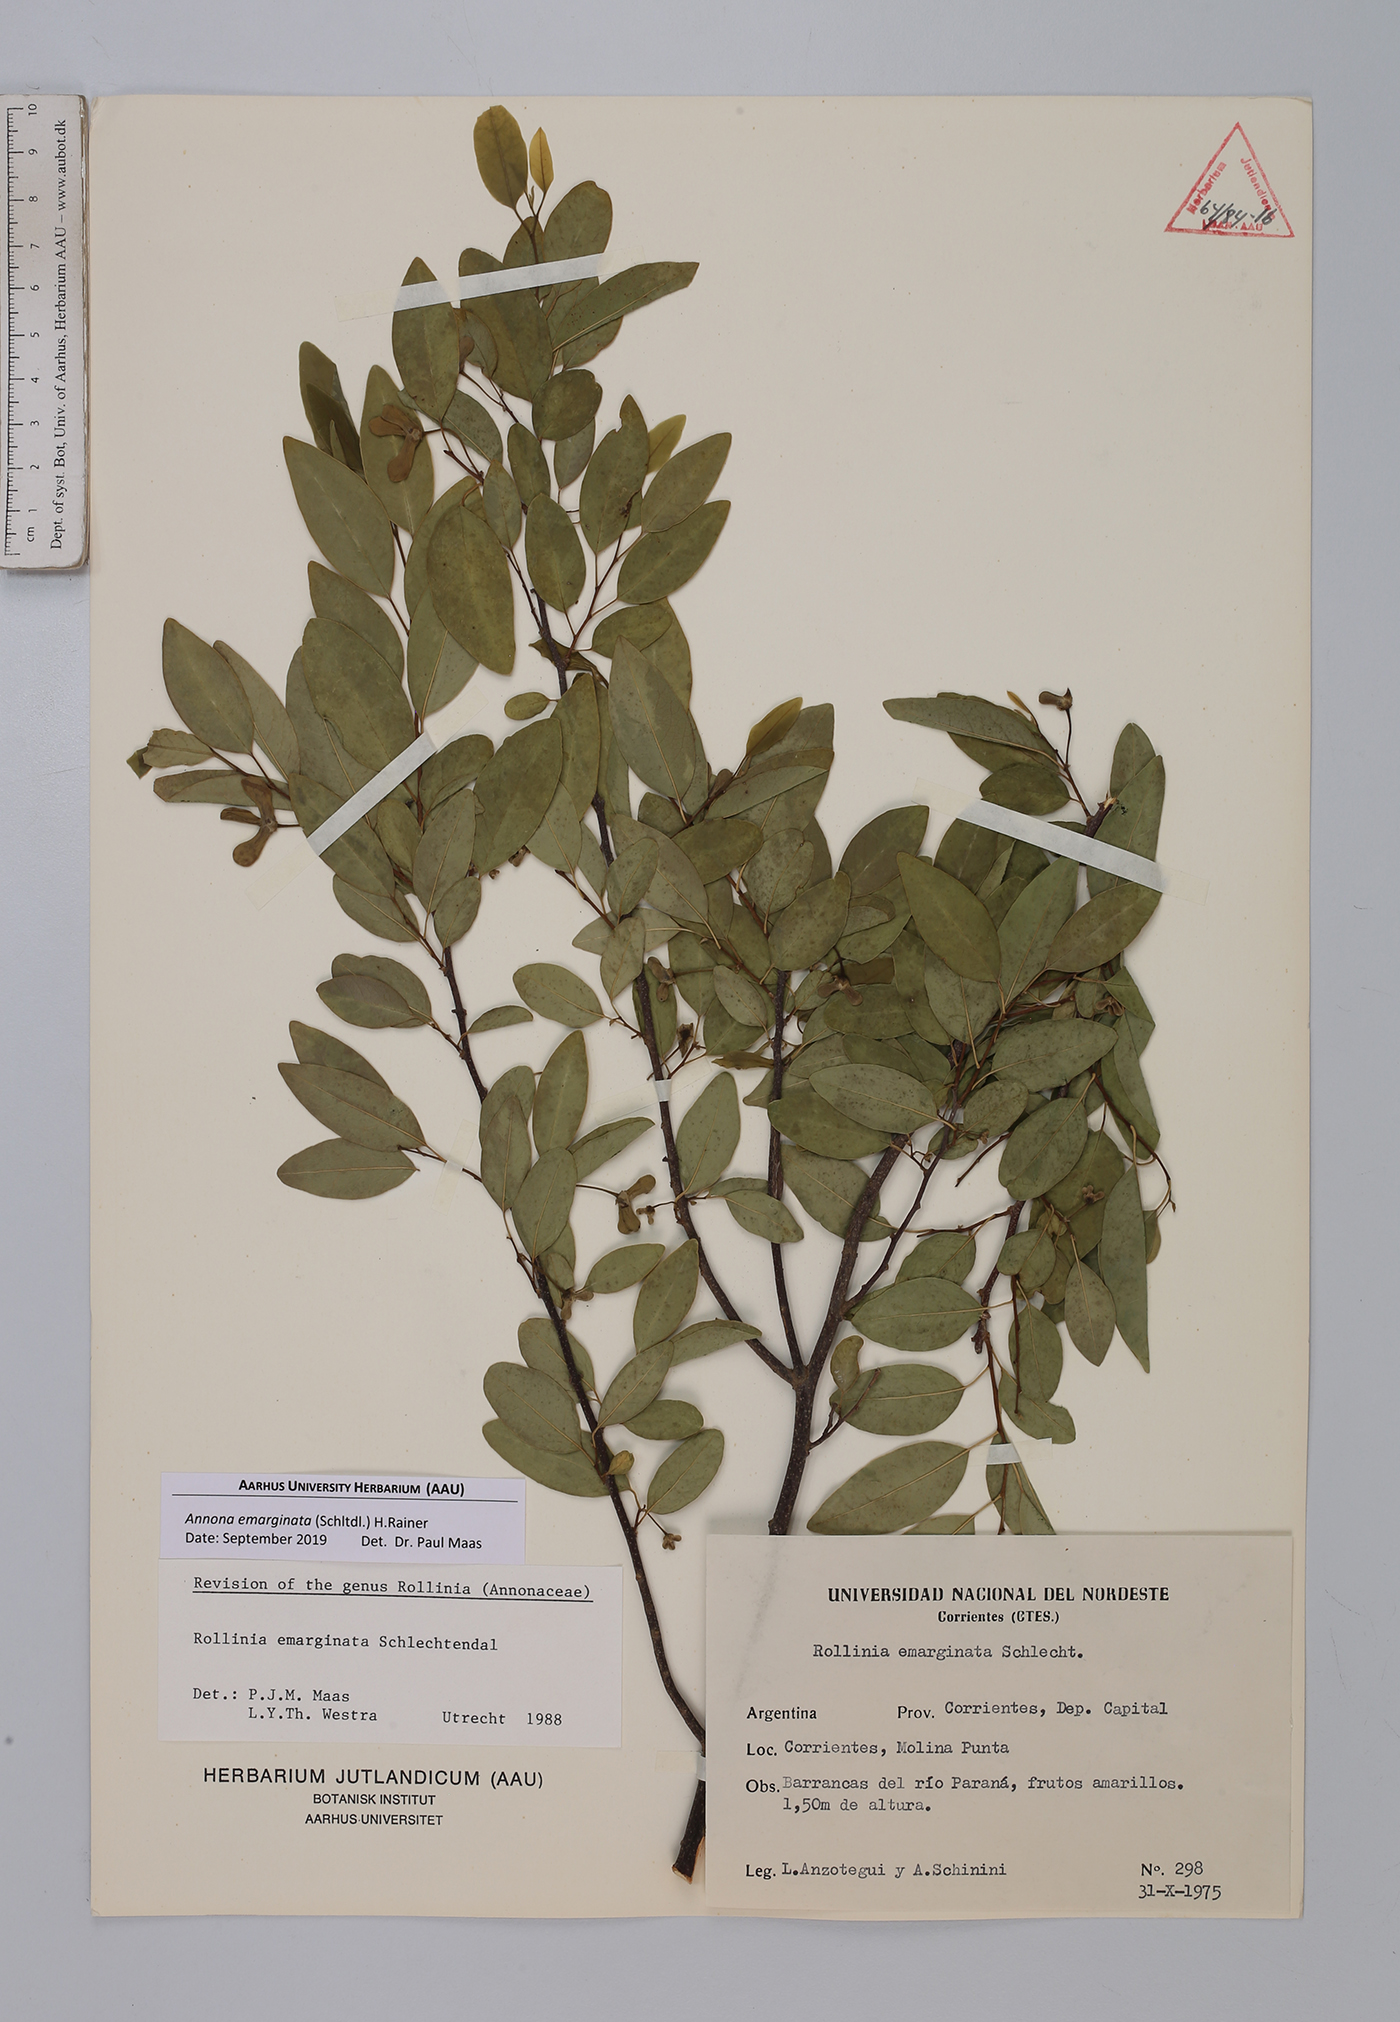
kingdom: Plantae
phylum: Tracheophyta
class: Magnoliopsida
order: Magnoliales
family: Annonaceae
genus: Annona
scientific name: Annona emarginata
